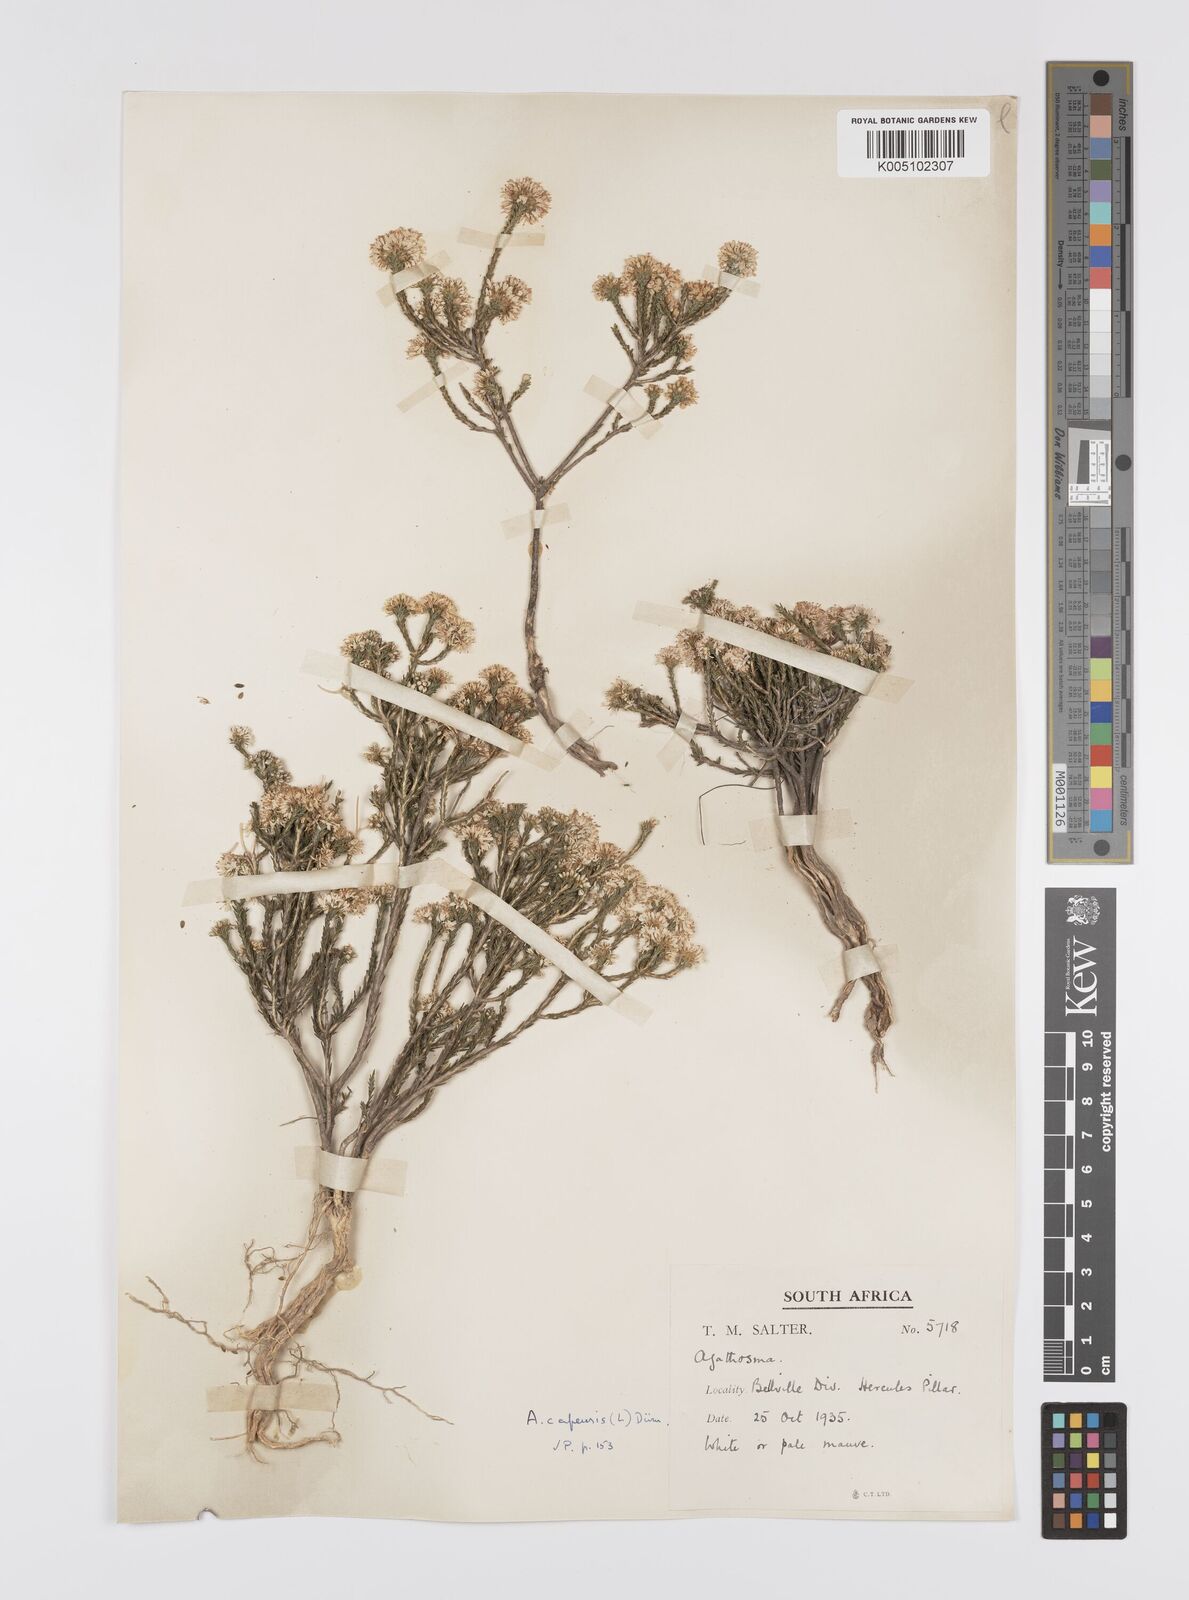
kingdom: Plantae
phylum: Tracheophyta
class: Magnoliopsida
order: Sapindales
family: Rutaceae
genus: Agathosma
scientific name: Agathosma capensis
